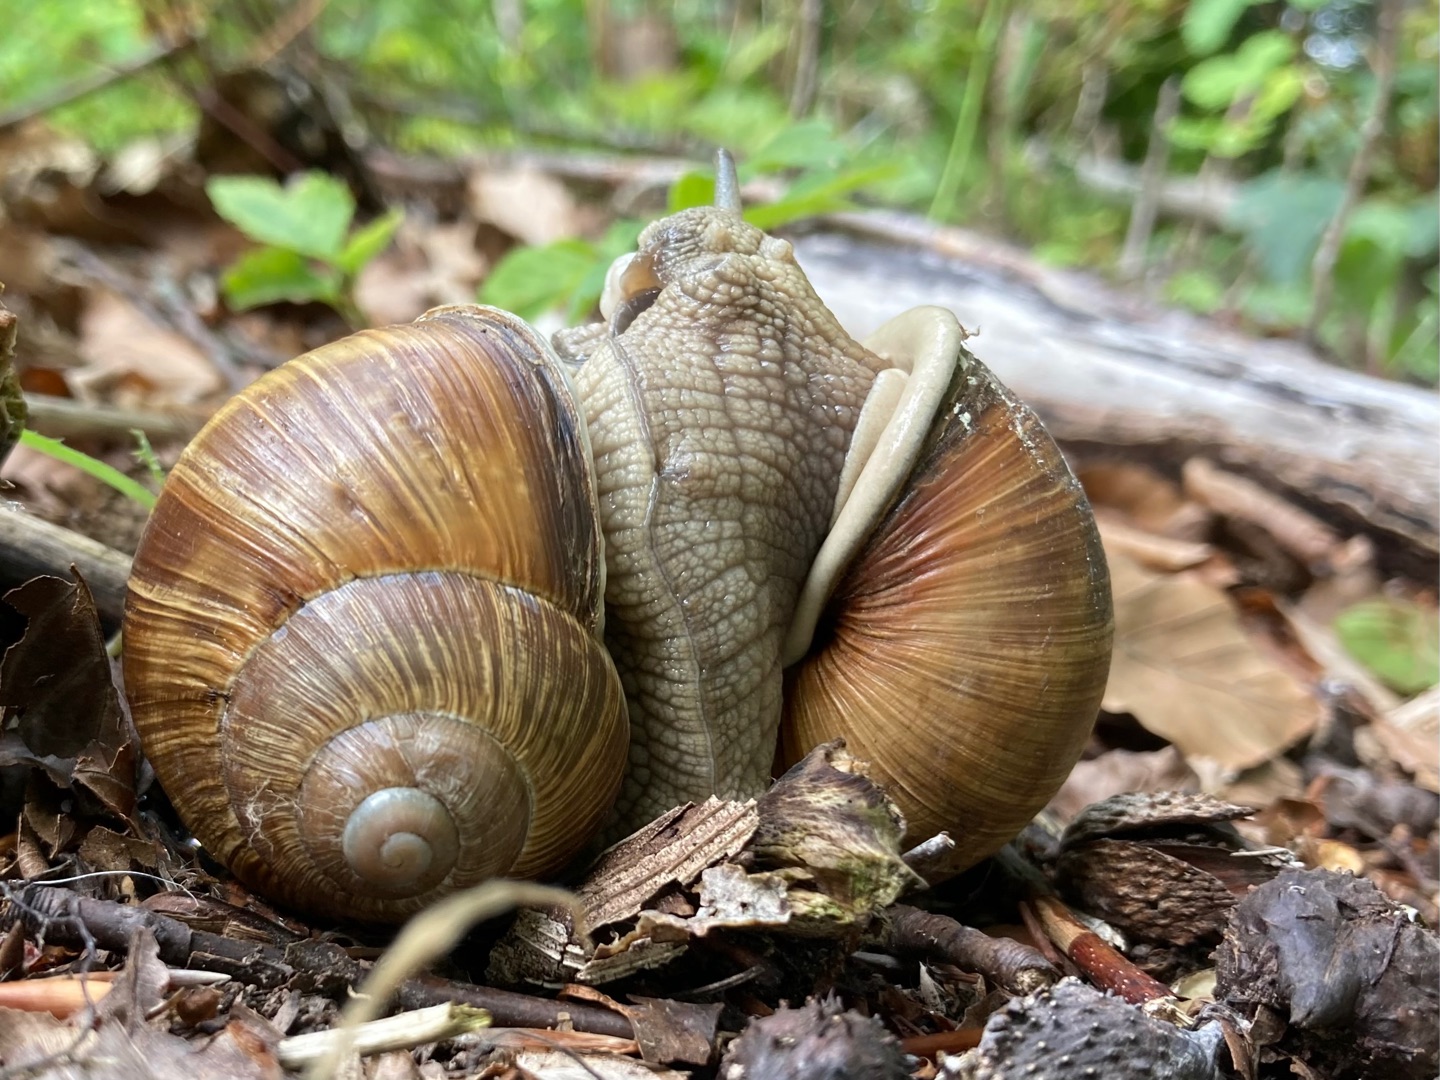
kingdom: Animalia
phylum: Mollusca
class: Gastropoda
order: Stylommatophora
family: Helicidae
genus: Helix
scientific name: Helix pomatia
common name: Vinbjergsnegl
